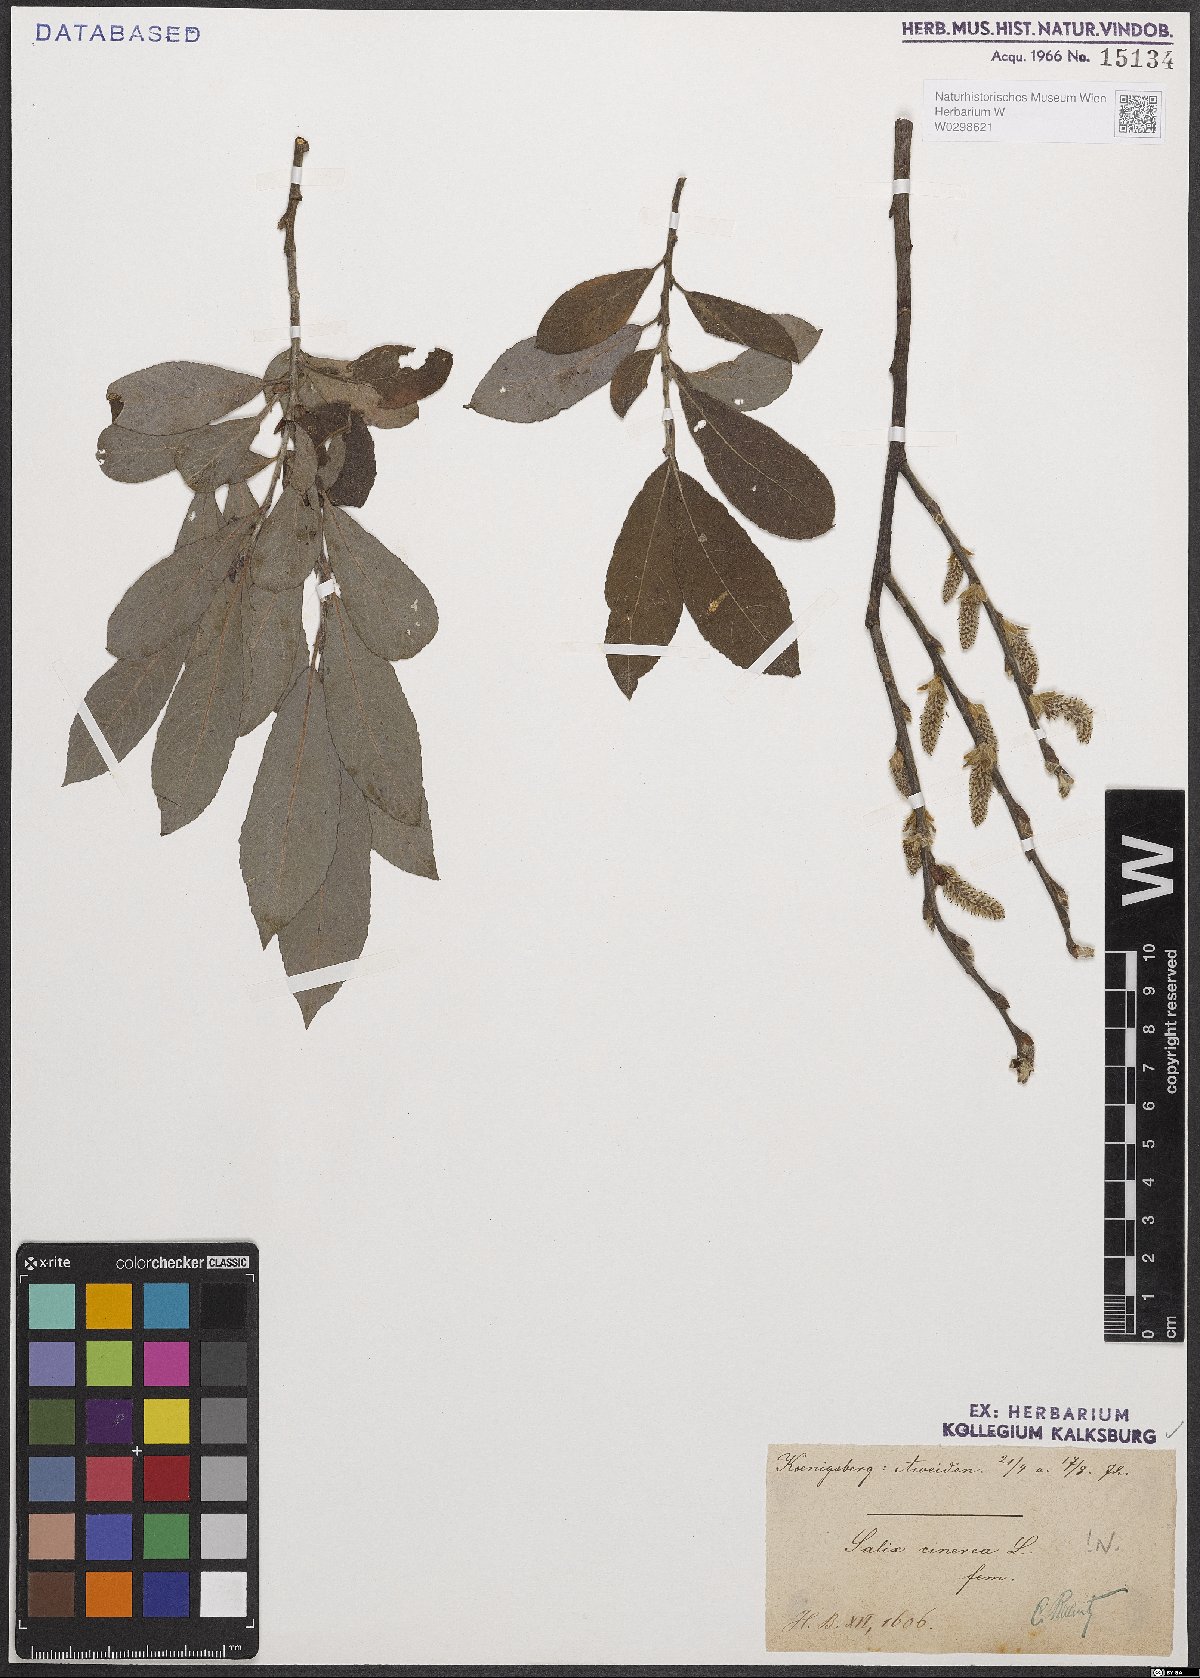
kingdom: Plantae
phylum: Tracheophyta
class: Magnoliopsida
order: Malpighiales
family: Salicaceae
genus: Salix
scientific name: Salix cinerea
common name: Common sallow
